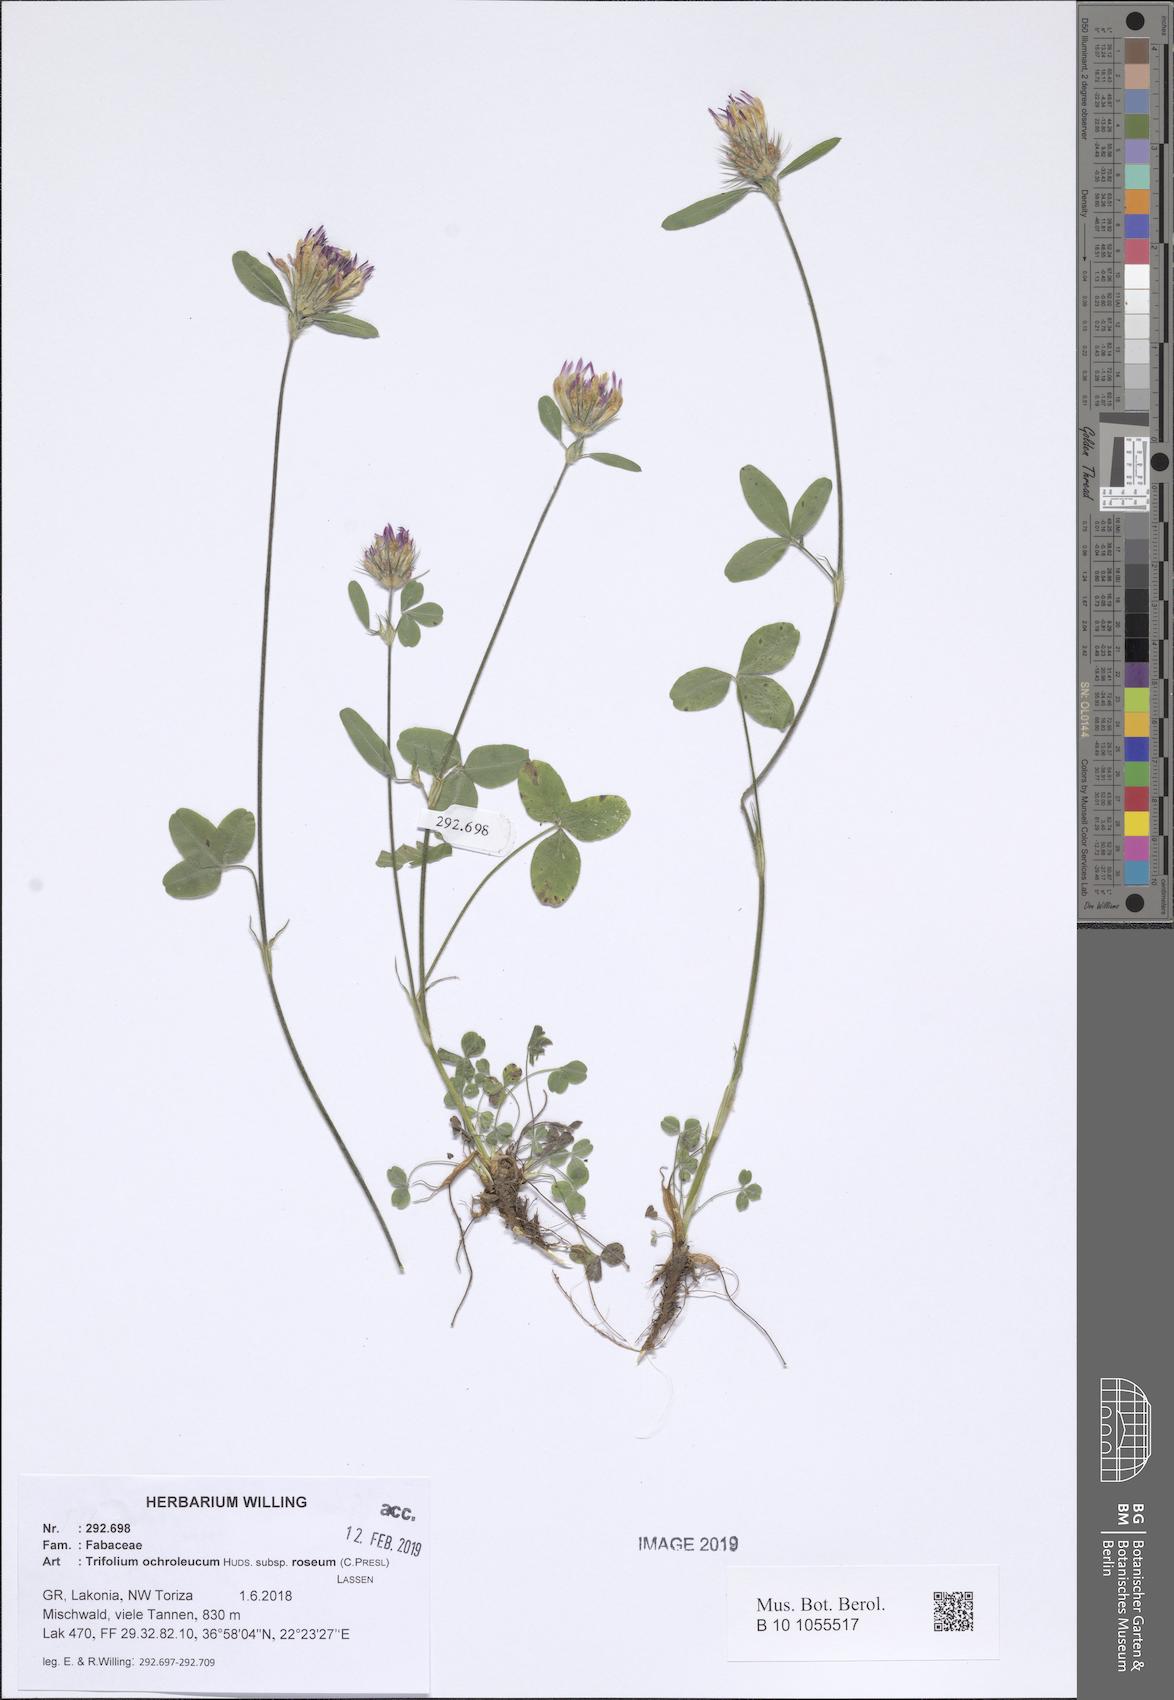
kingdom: Plantae
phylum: Tracheophyta
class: Magnoliopsida
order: Fabales
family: Fabaceae
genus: Trifolium
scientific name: Trifolium ochroleucon
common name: Sulphur clover
